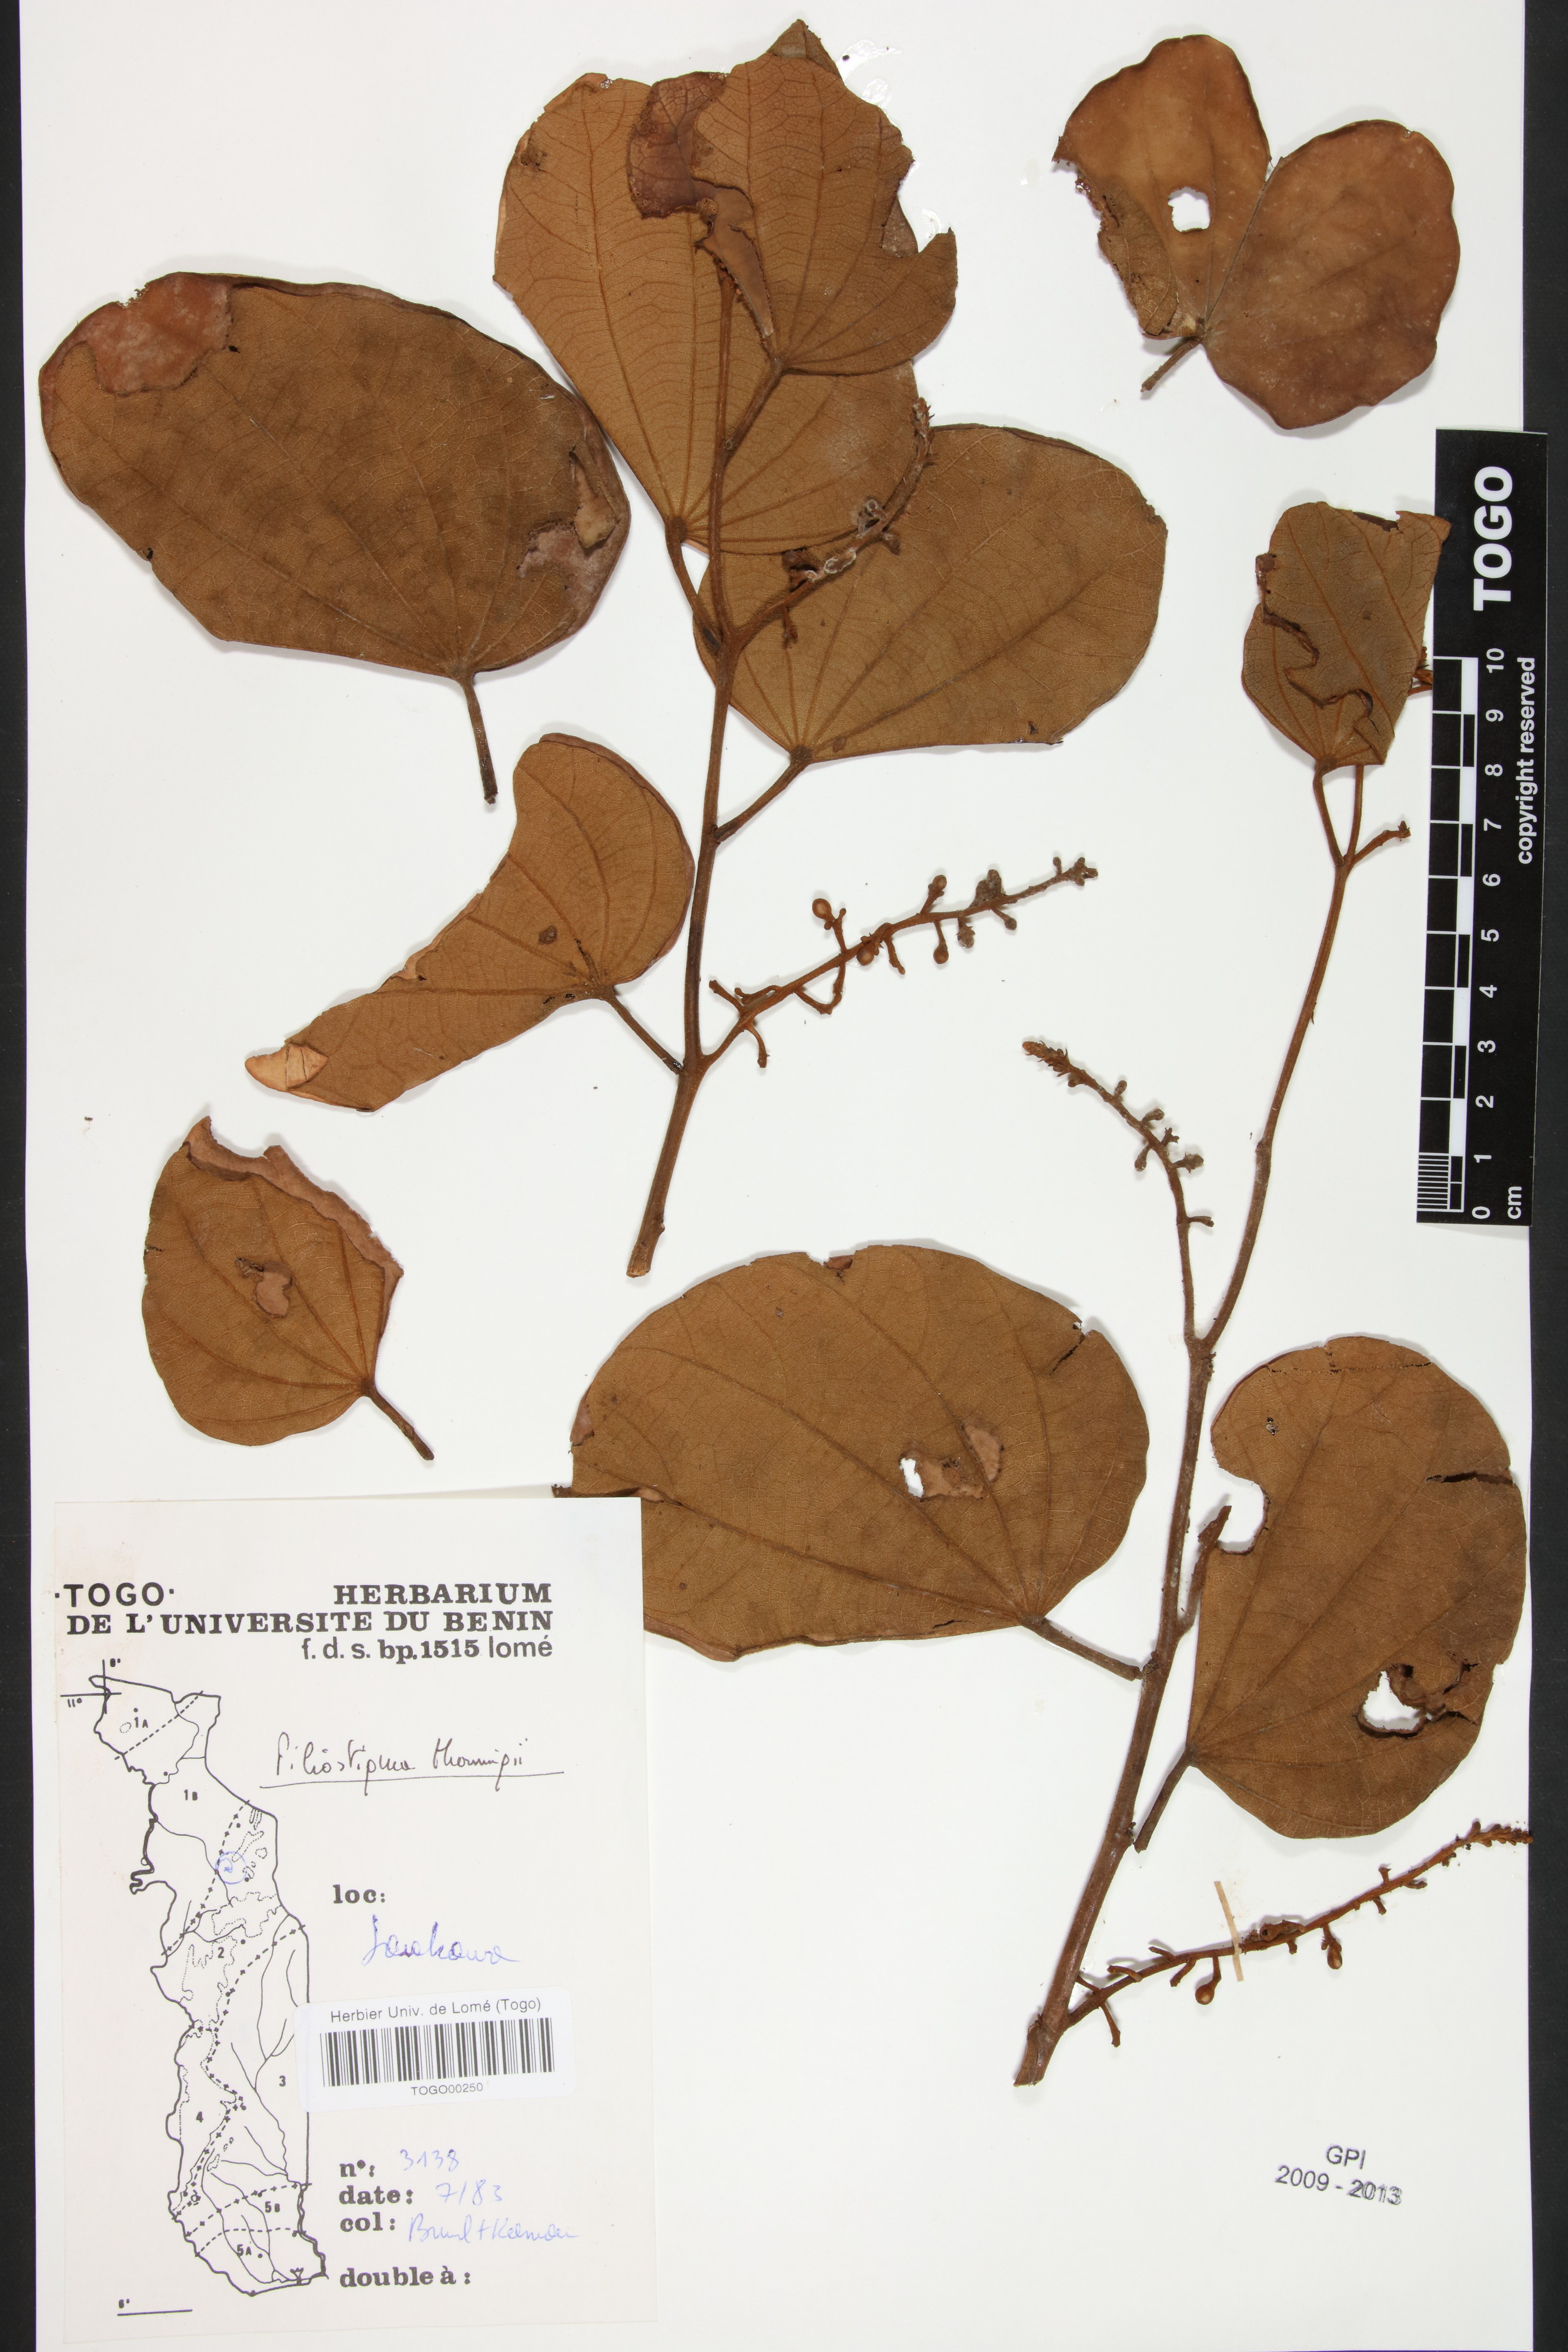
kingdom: Plantae
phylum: Tracheophyta
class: Magnoliopsida
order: Fabales
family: Fabaceae
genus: Piliostigma
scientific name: Piliostigma thonningii
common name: Kao
